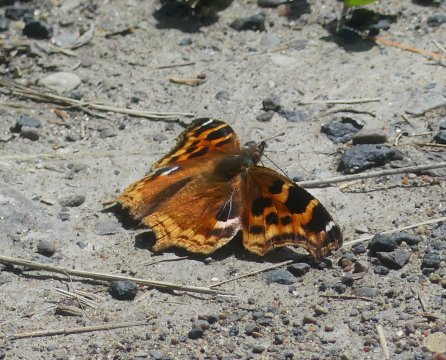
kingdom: Animalia
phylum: Arthropoda
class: Insecta
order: Lepidoptera
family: Nymphalidae
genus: Polygonia
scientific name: Polygonia vaualbum
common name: Compton Tortoiseshell
